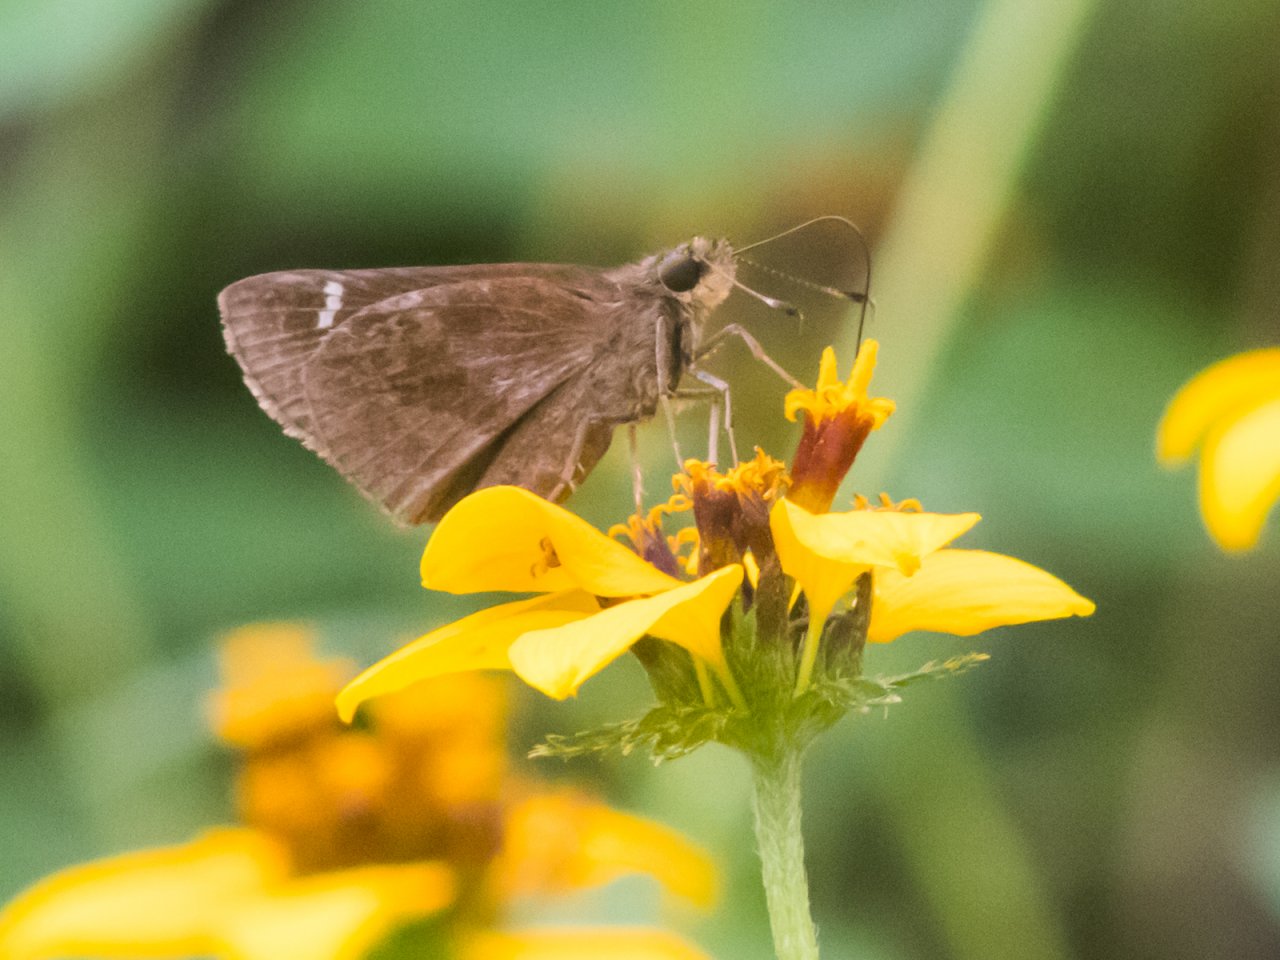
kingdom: Animalia
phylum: Arthropoda
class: Insecta
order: Lepidoptera
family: Hesperiidae
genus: Lerema
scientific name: Lerema accius
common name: Clouded Skipper
